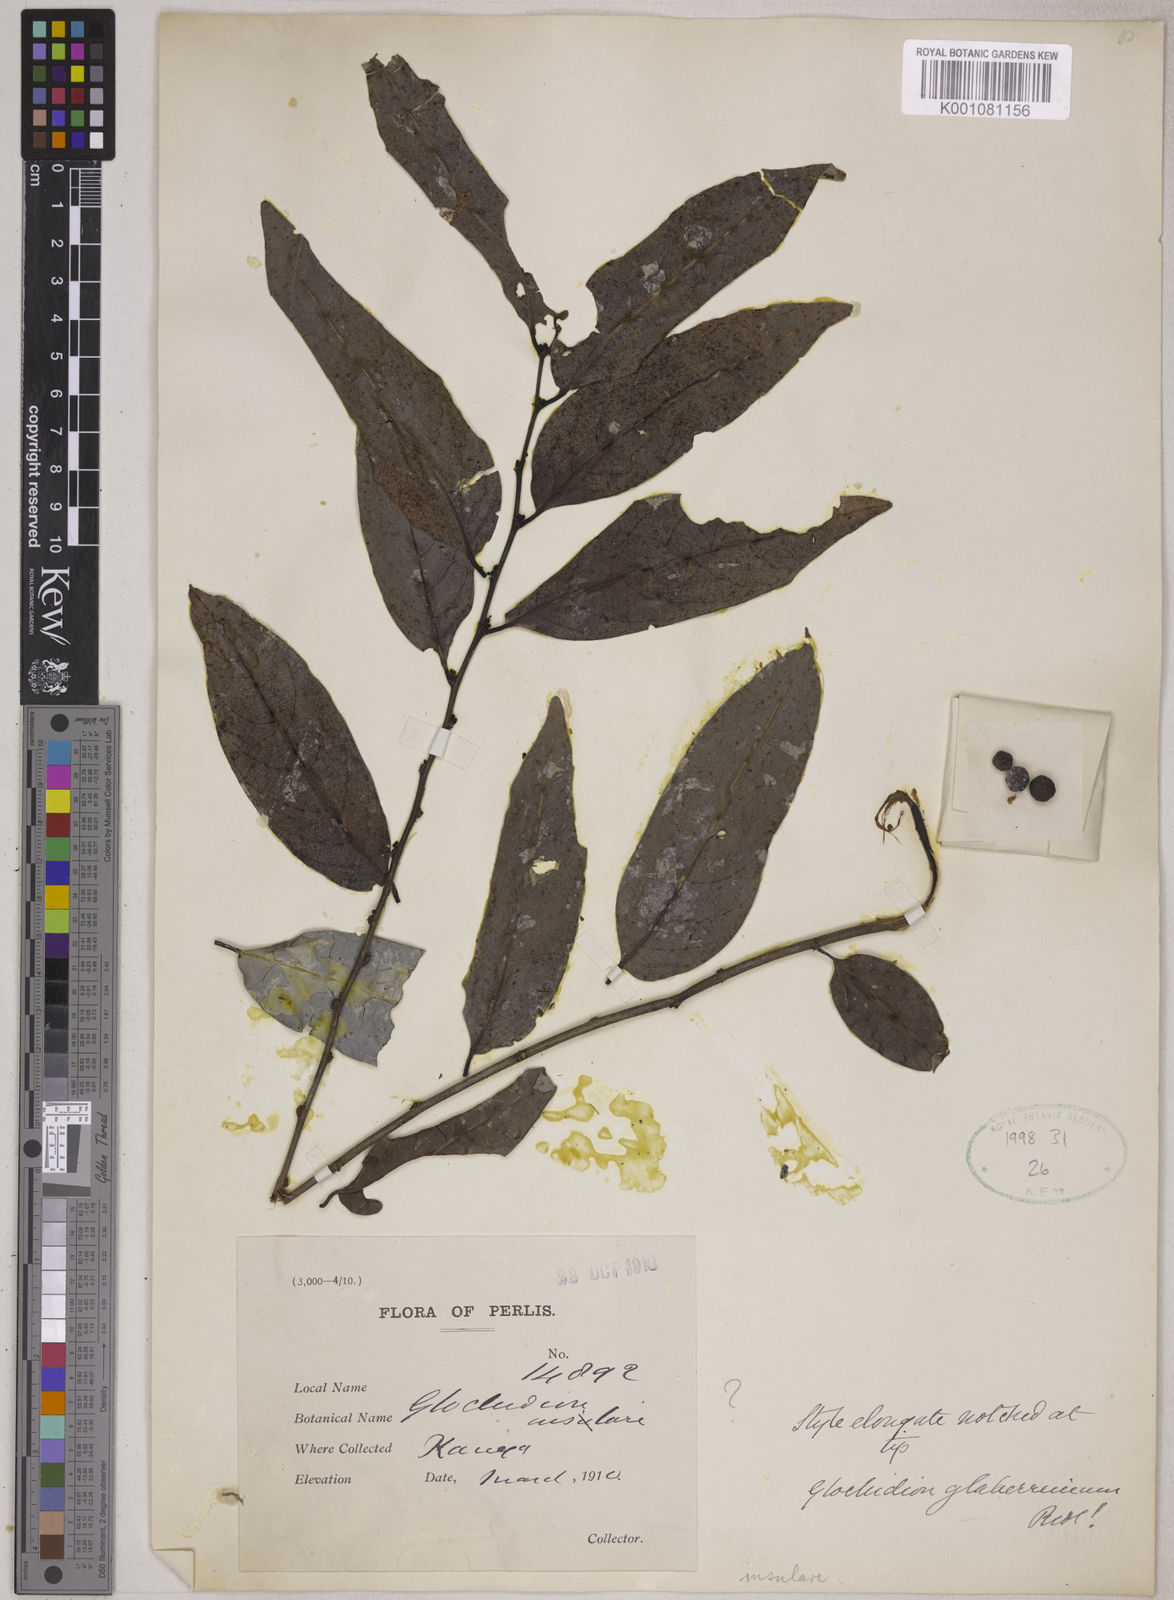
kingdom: Plantae
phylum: Tracheophyta
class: Magnoliopsida
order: Malpighiales
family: Phyllanthaceae
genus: Glochidion
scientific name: Glochidion zeylanicum
